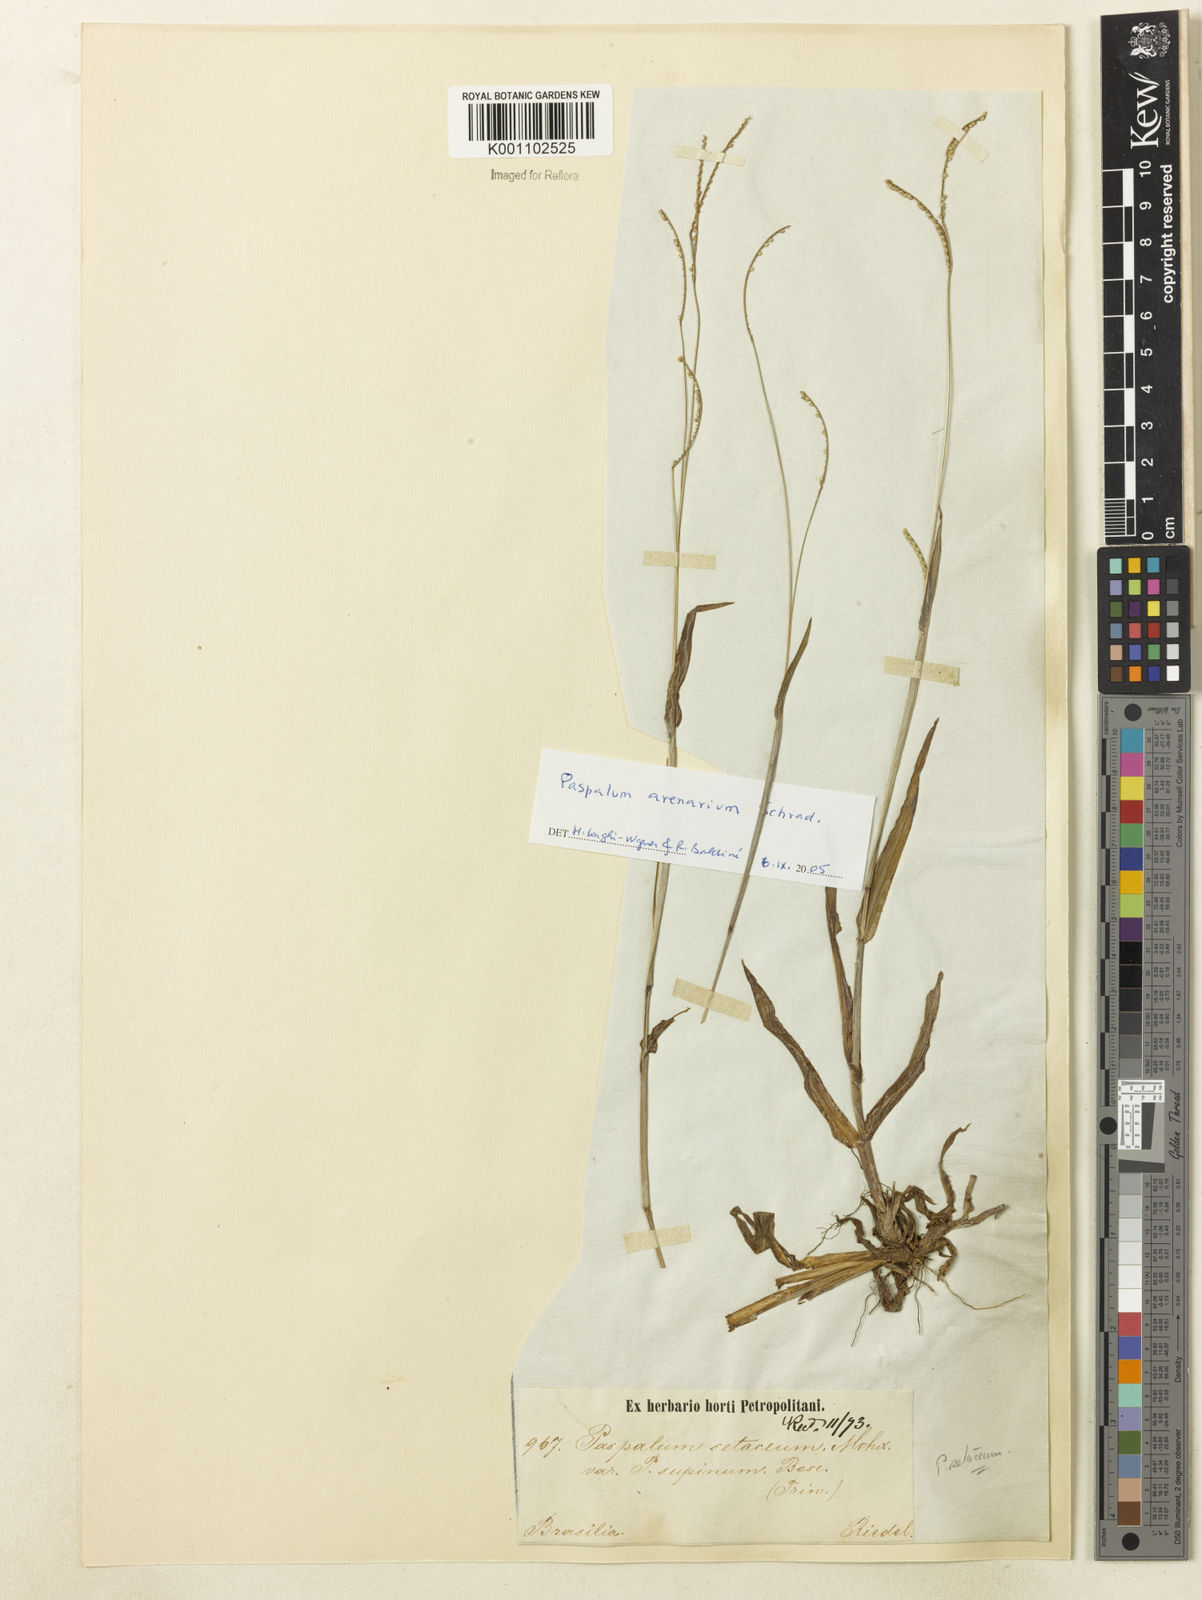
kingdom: Plantae
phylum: Tracheophyta
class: Liliopsida
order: Poales
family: Poaceae
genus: Paspalum
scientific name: Paspalum arenarium
